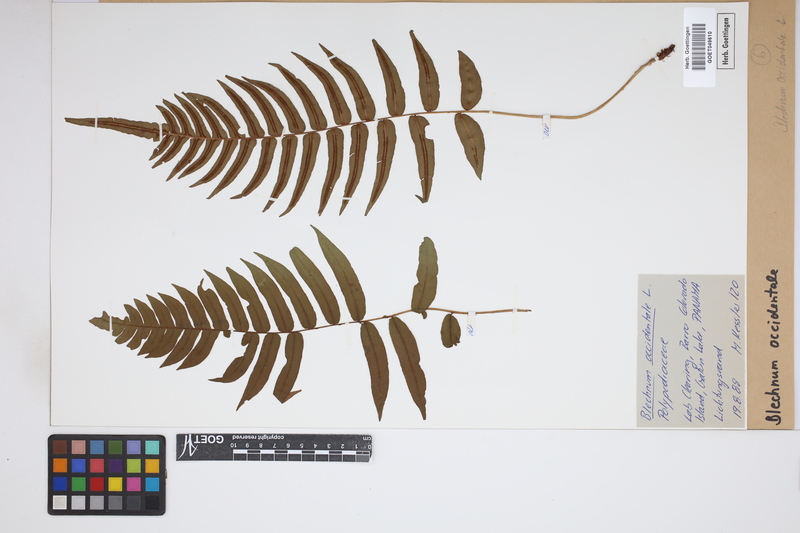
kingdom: Plantae
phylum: Tracheophyta
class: Polypodiopsida
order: Polypodiales
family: Blechnaceae
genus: Blechnum
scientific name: Blechnum occidentale
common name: Hammock fern
